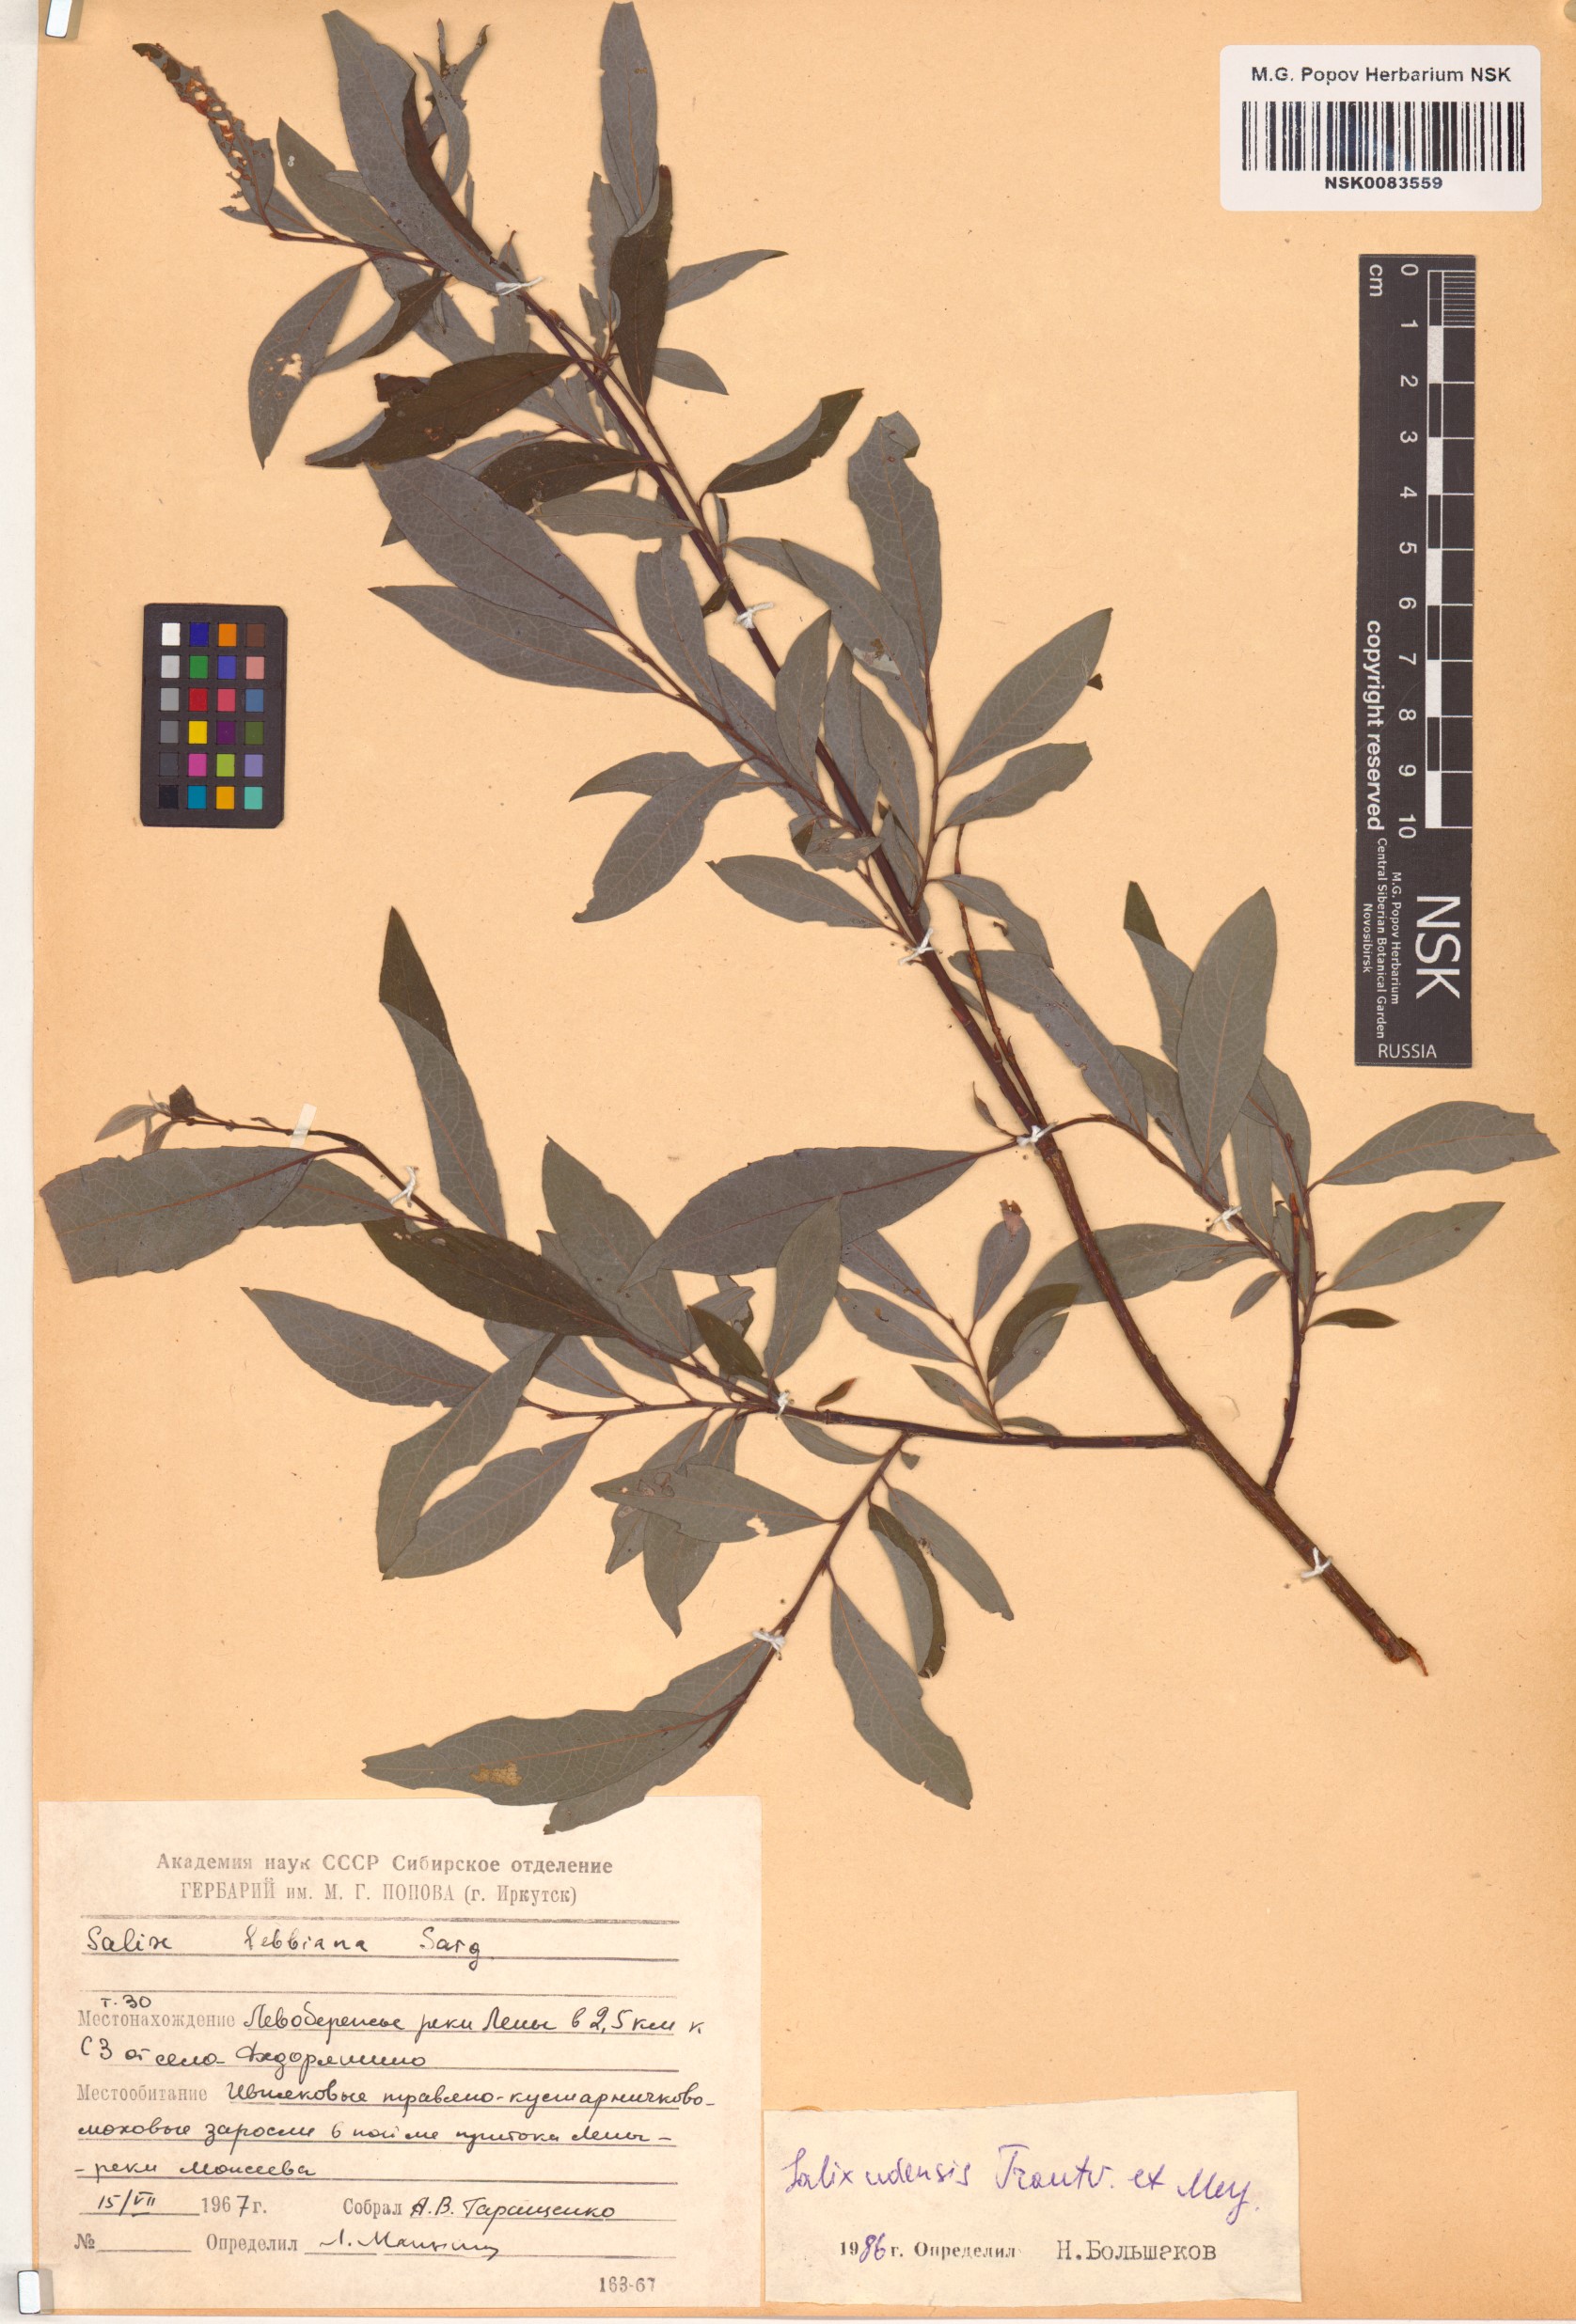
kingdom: Plantae
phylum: Tracheophyta
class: Magnoliopsida
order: Malpighiales
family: Salicaceae
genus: Salix
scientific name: Salix udensis
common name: Sachalin willow
